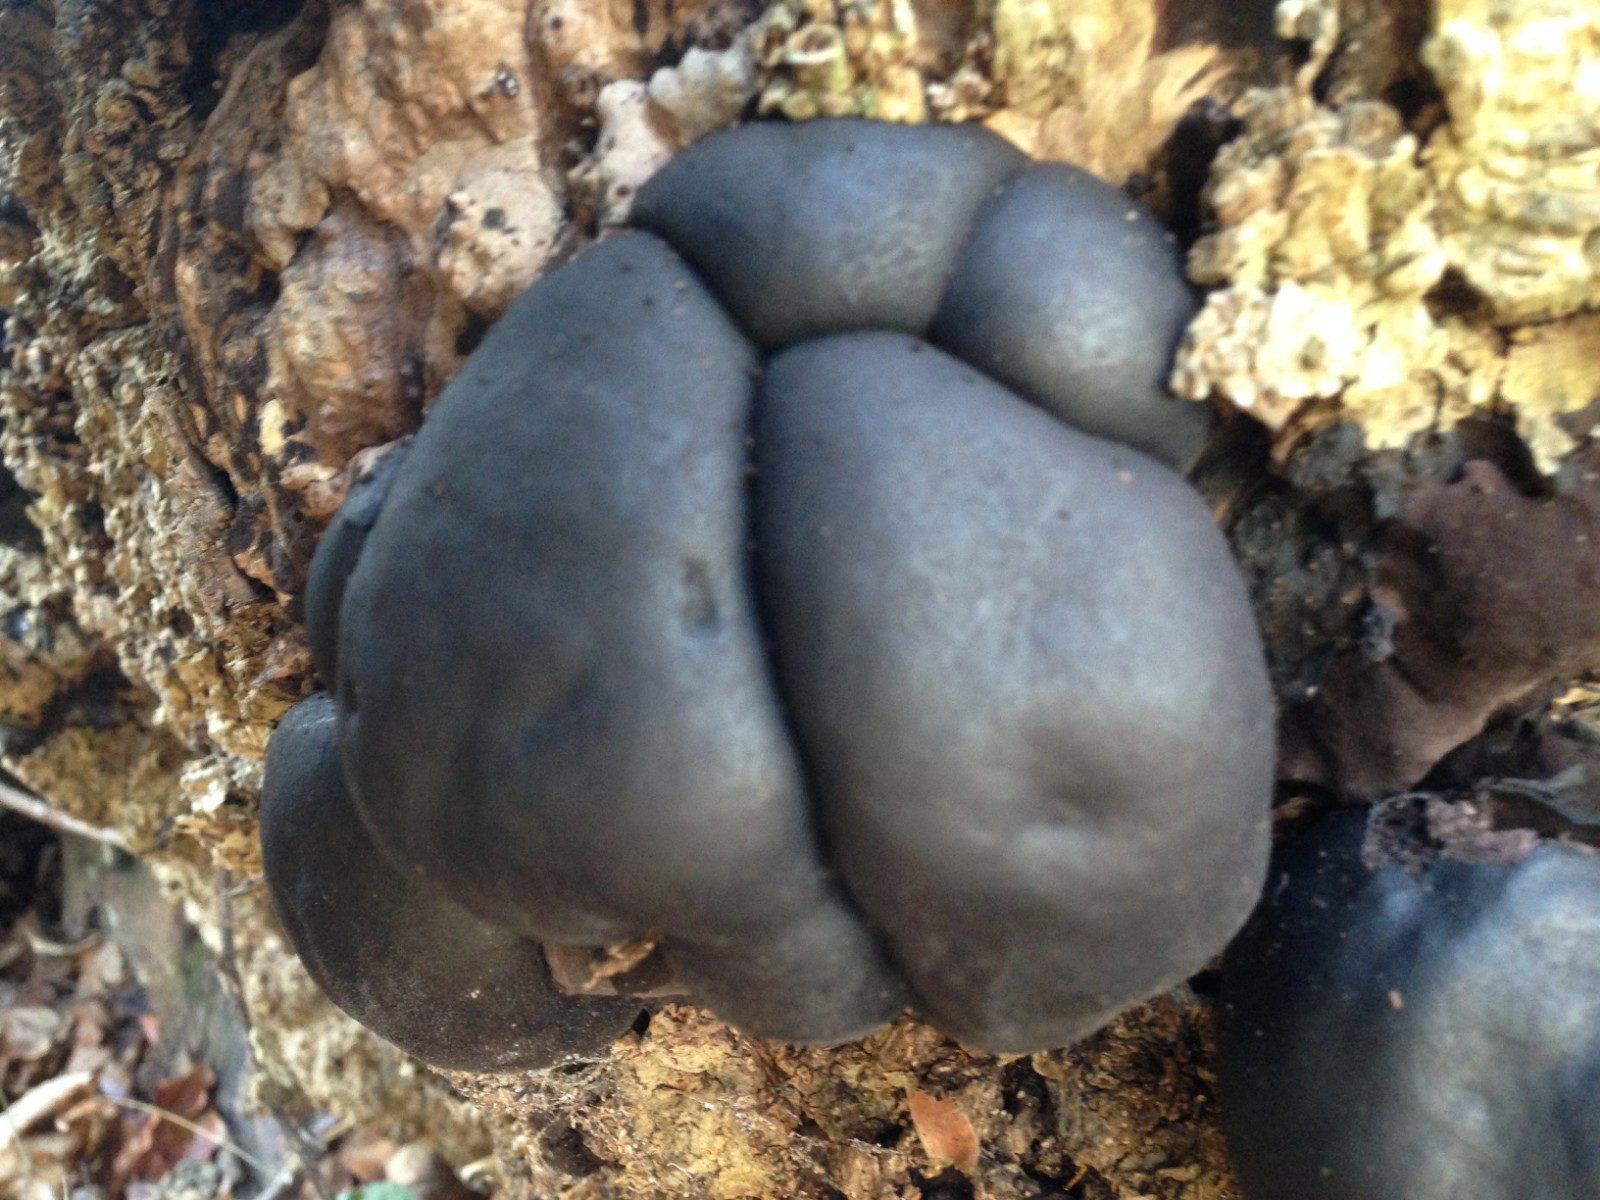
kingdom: Fungi
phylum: Ascomycota
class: Sordariomycetes
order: Xylariales
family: Hypoxylaceae
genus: Daldinia
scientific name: Daldinia concentrica
